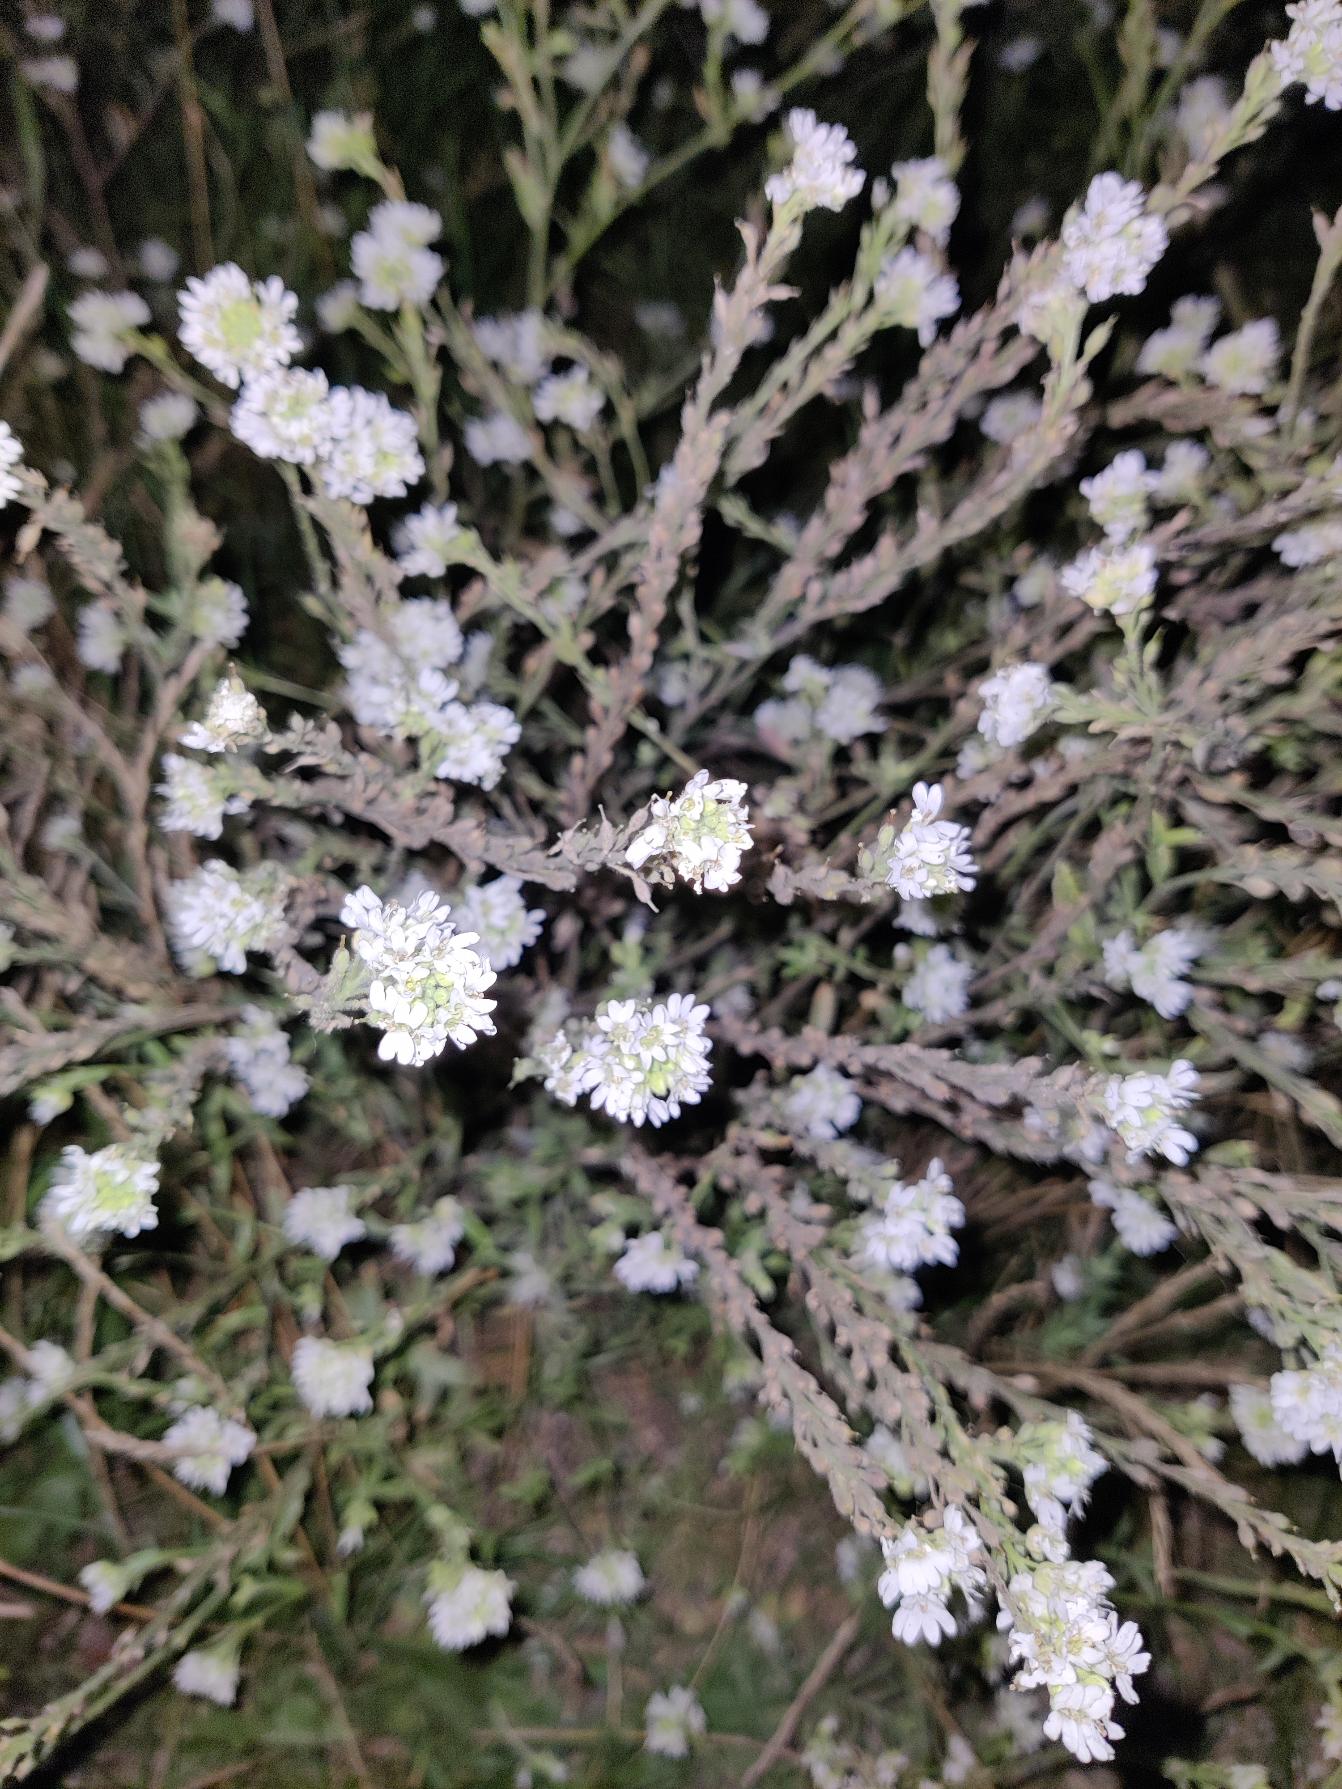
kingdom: Plantae
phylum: Tracheophyta
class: Magnoliopsida
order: Brassicales
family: Brassicaceae
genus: Berteroa
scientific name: Berteroa incana
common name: Kløvplade
